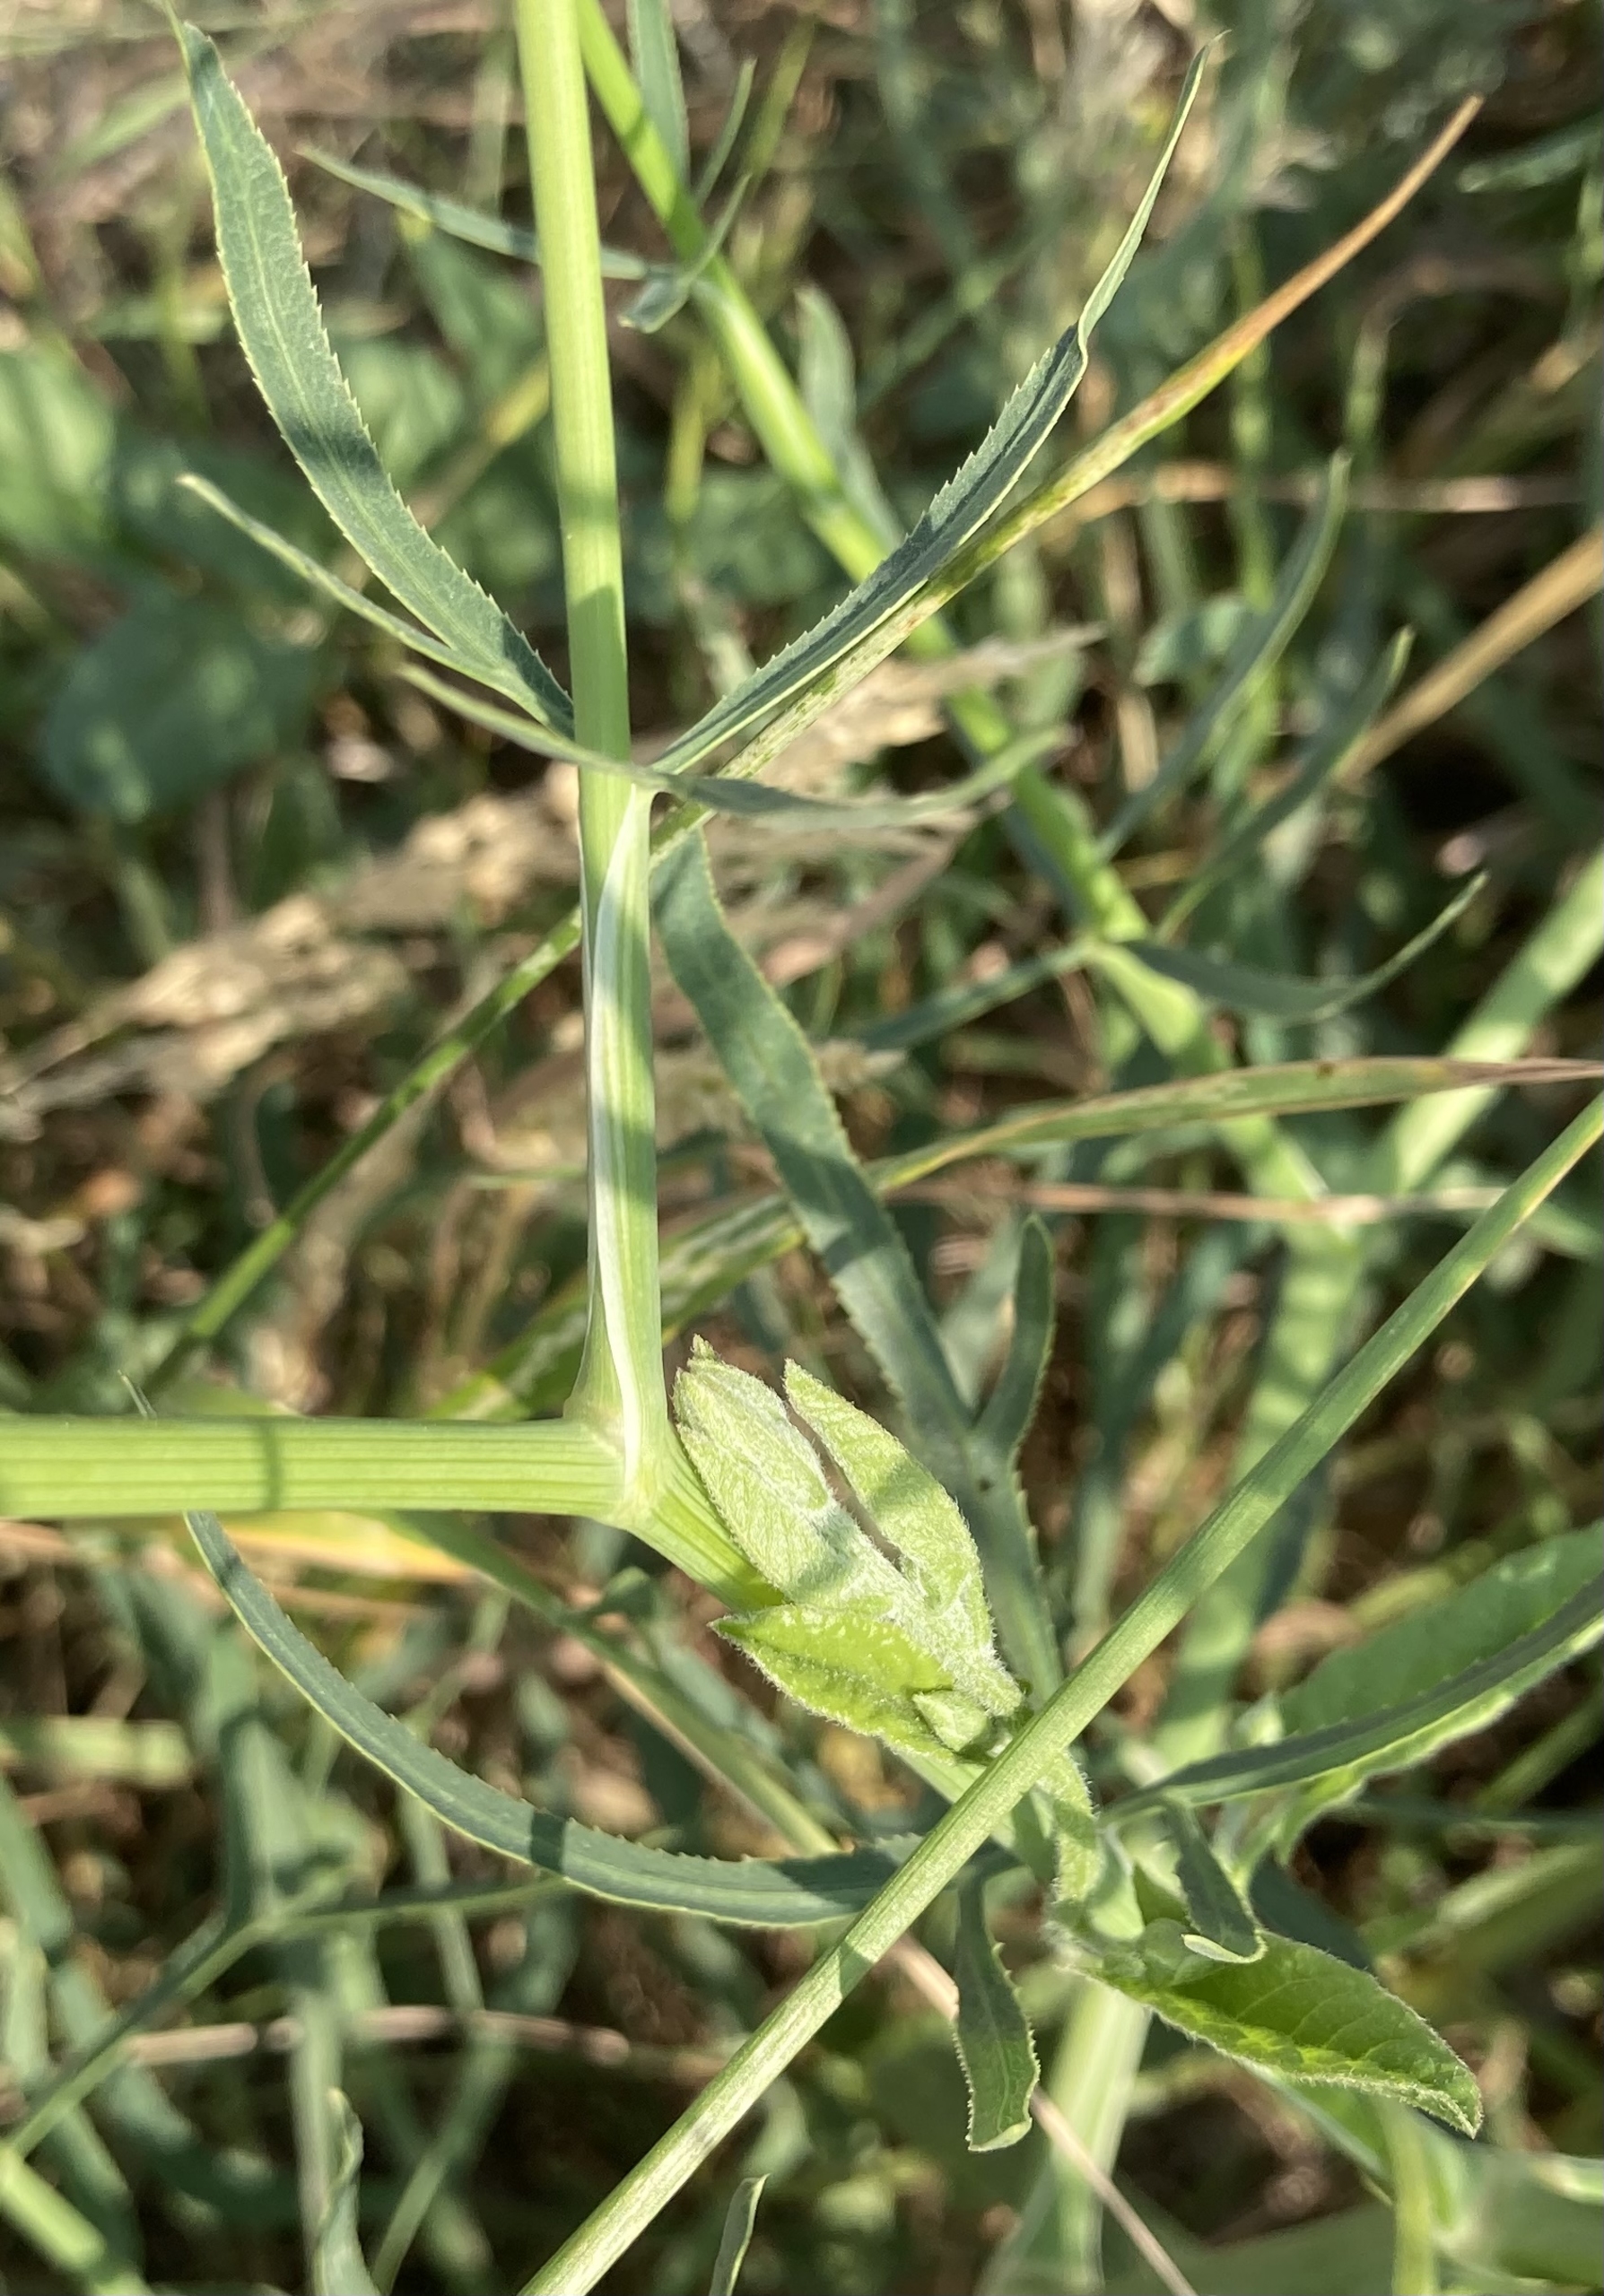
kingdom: Plantae
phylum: Tracheophyta
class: Magnoliopsida
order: Apiales
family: Apiaceae
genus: Falcaria
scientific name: Falcaria vulgaris
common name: Seglblad
